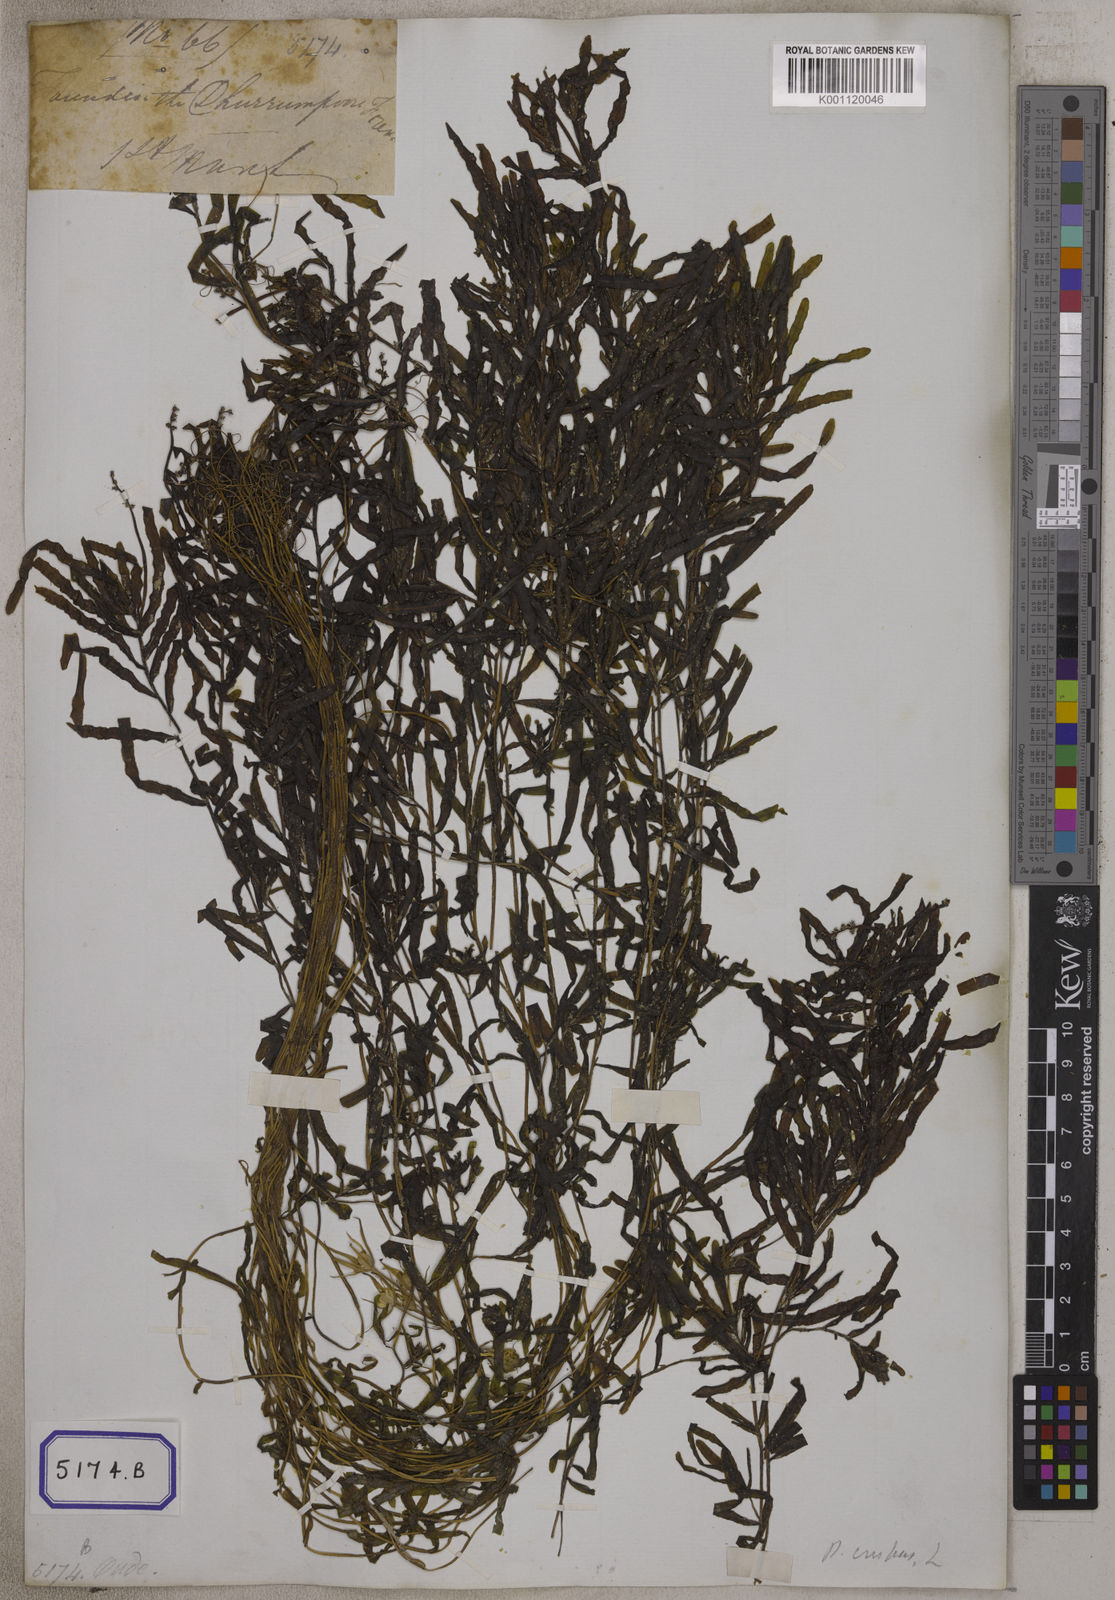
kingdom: Plantae
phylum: Tracheophyta
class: Liliopsida
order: Alismatales
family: Potamogetonaceae
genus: Potamogeton
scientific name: Potamogeton crispus
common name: Curled pondweed
